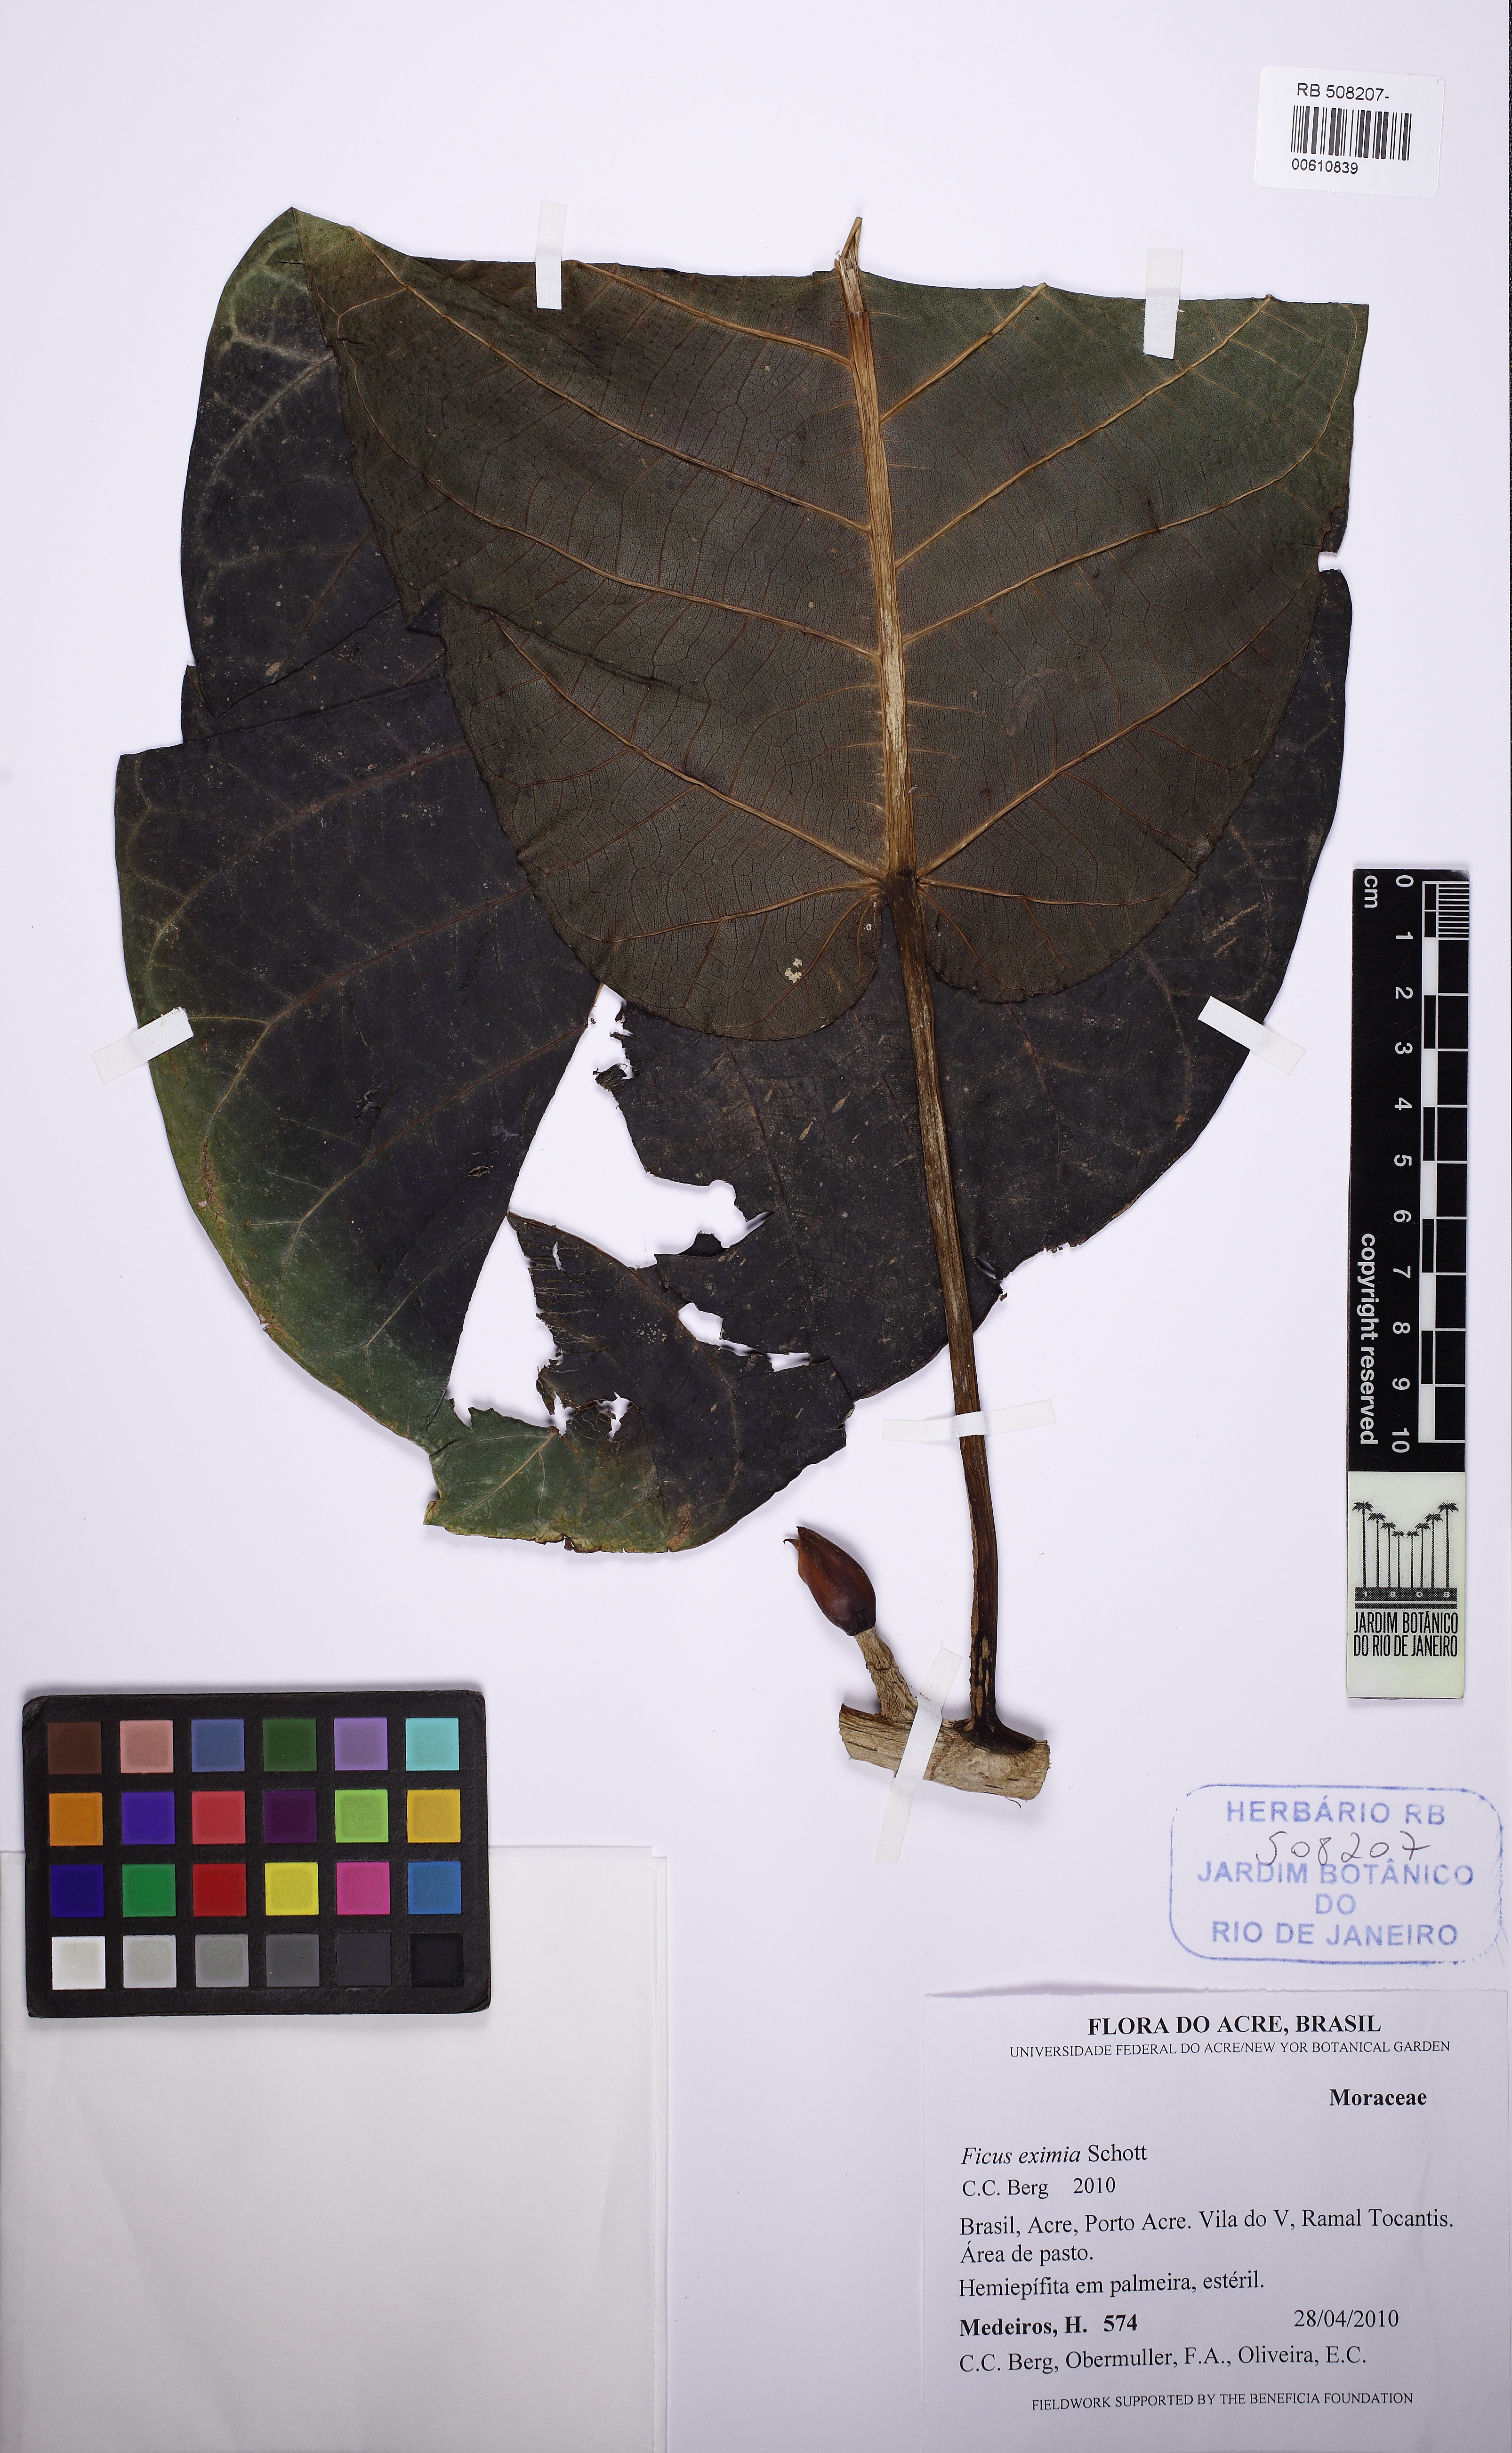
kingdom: Plantae
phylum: Tracheophyta
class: Magnoliopsida
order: Rosales
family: Moraceae
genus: Ficus
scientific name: Ficus nymphaeifolia
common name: Fig
